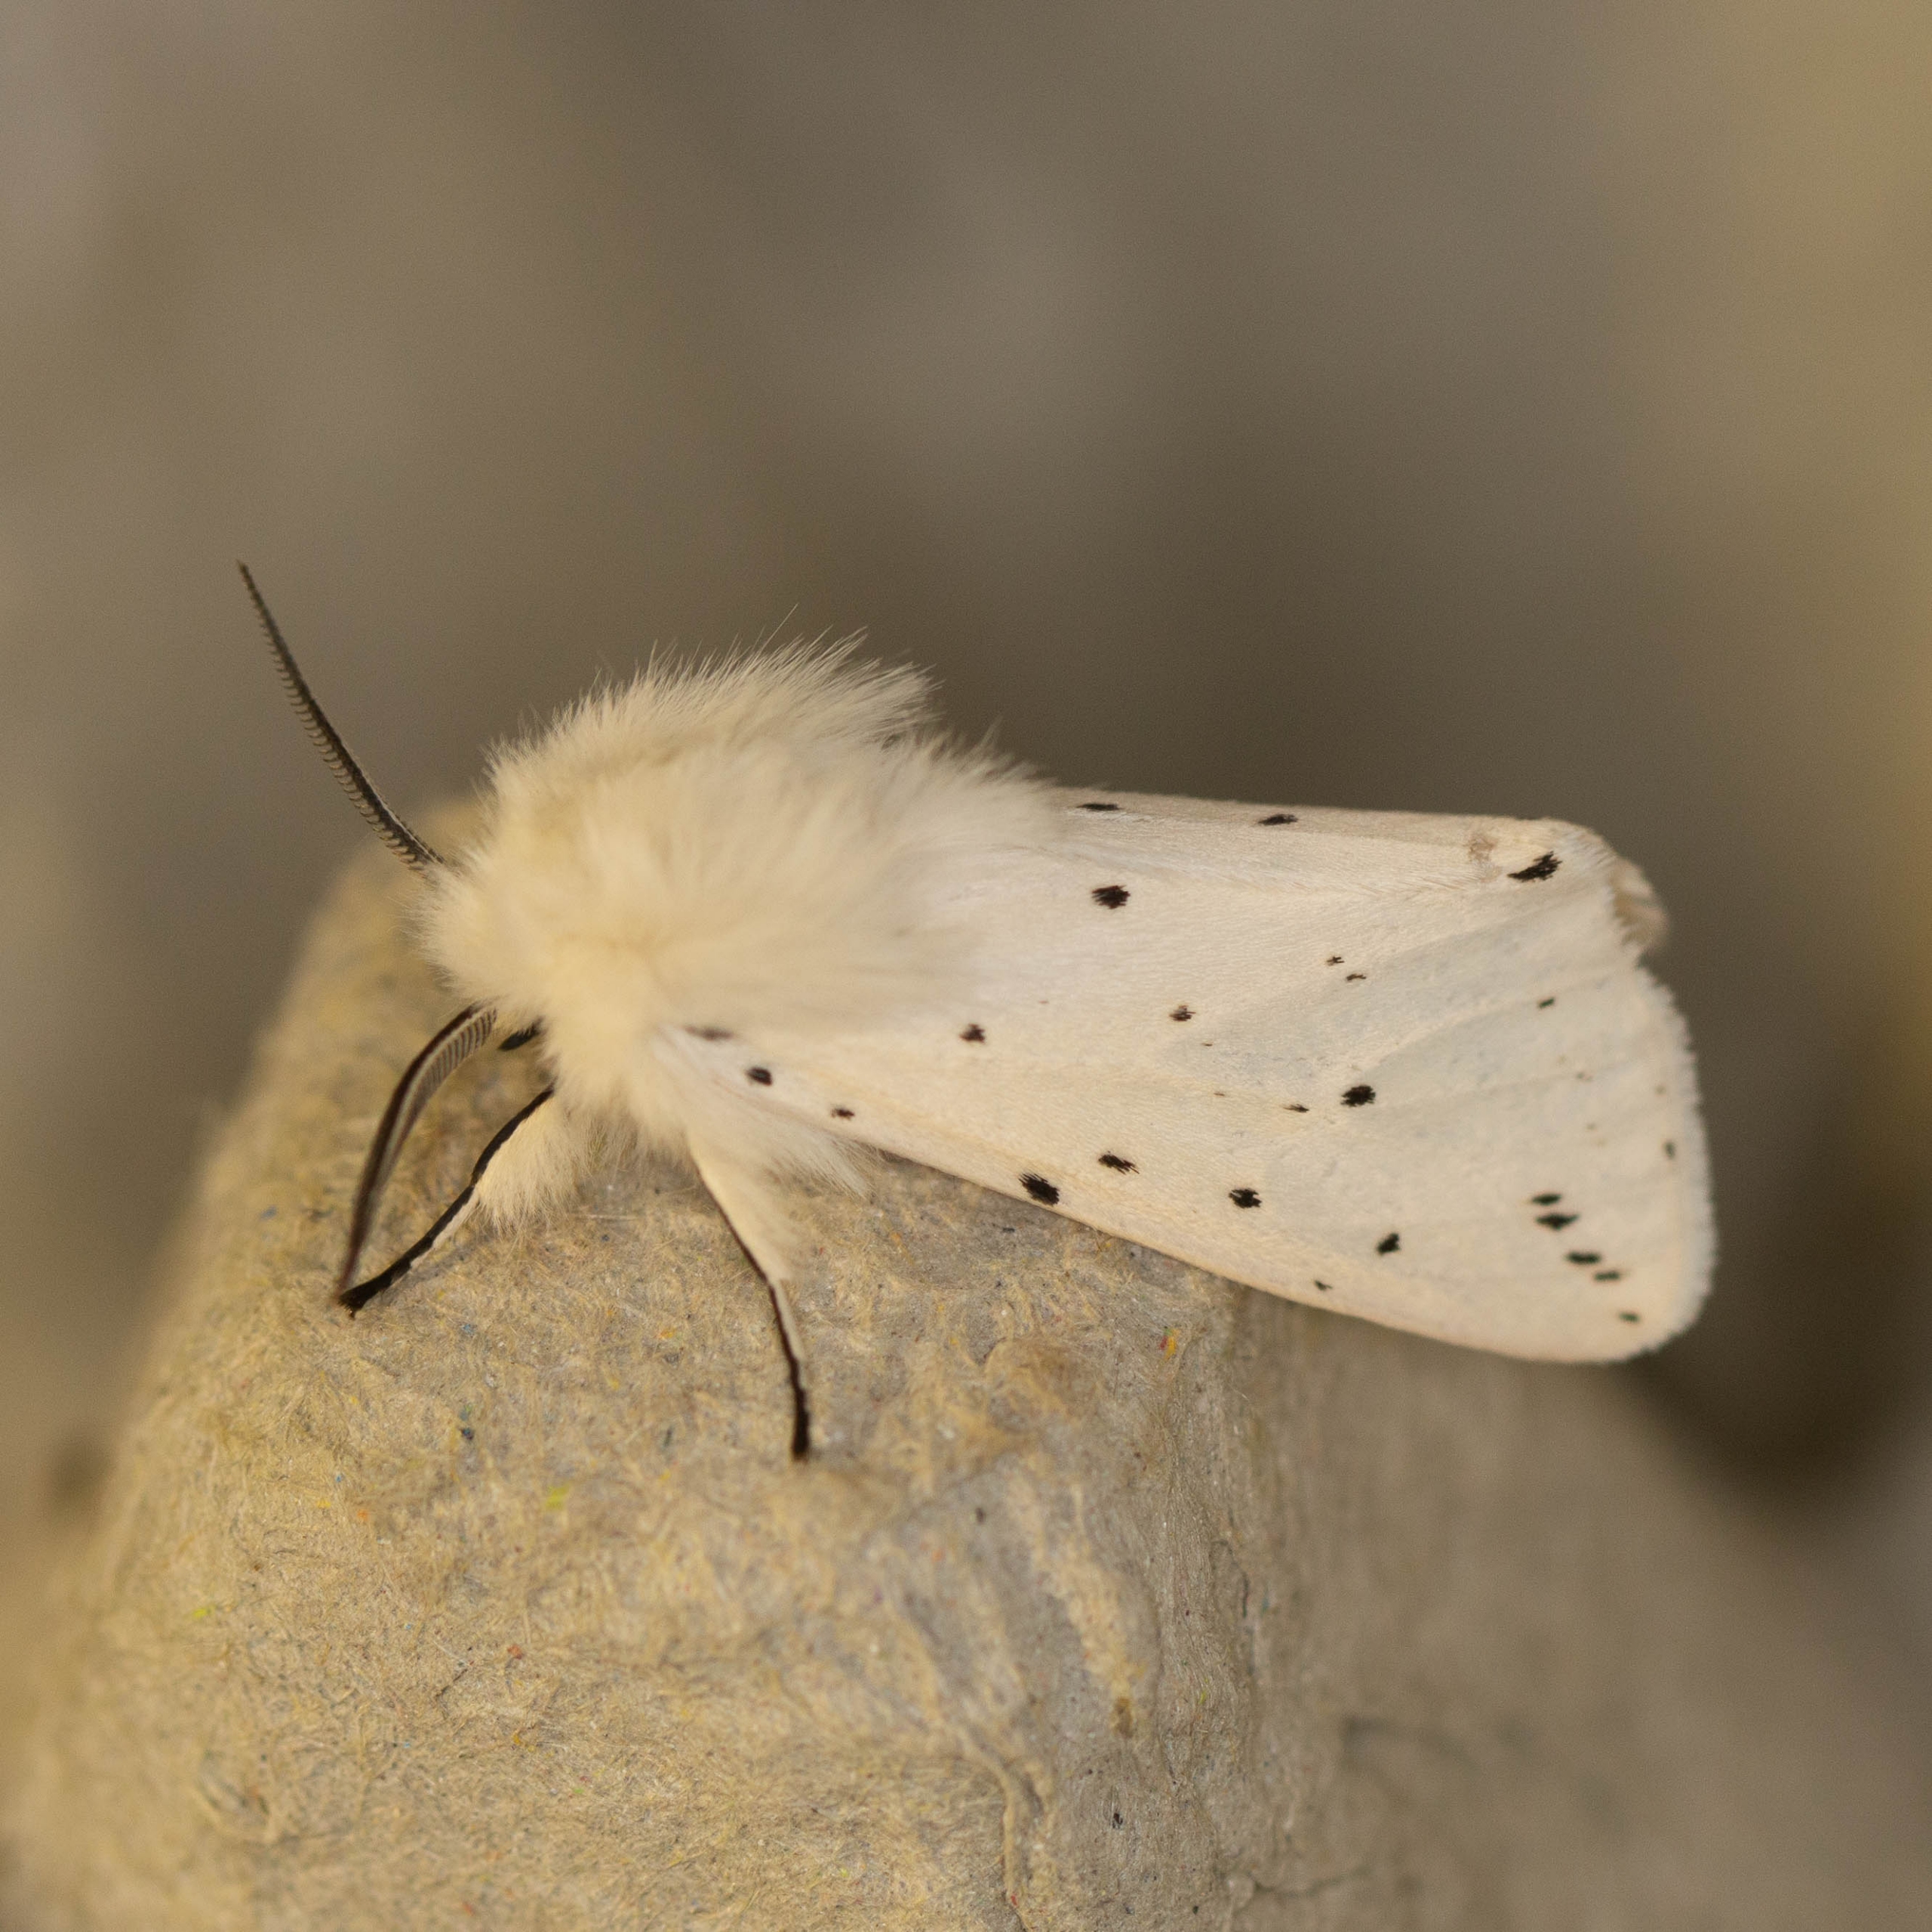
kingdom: Animalia
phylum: Arthropoda
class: Insecta
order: Lepidoptera
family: Erebidae
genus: Spilosoma
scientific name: Spilosoma lubricipeda
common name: Almindelig tigerspinder
